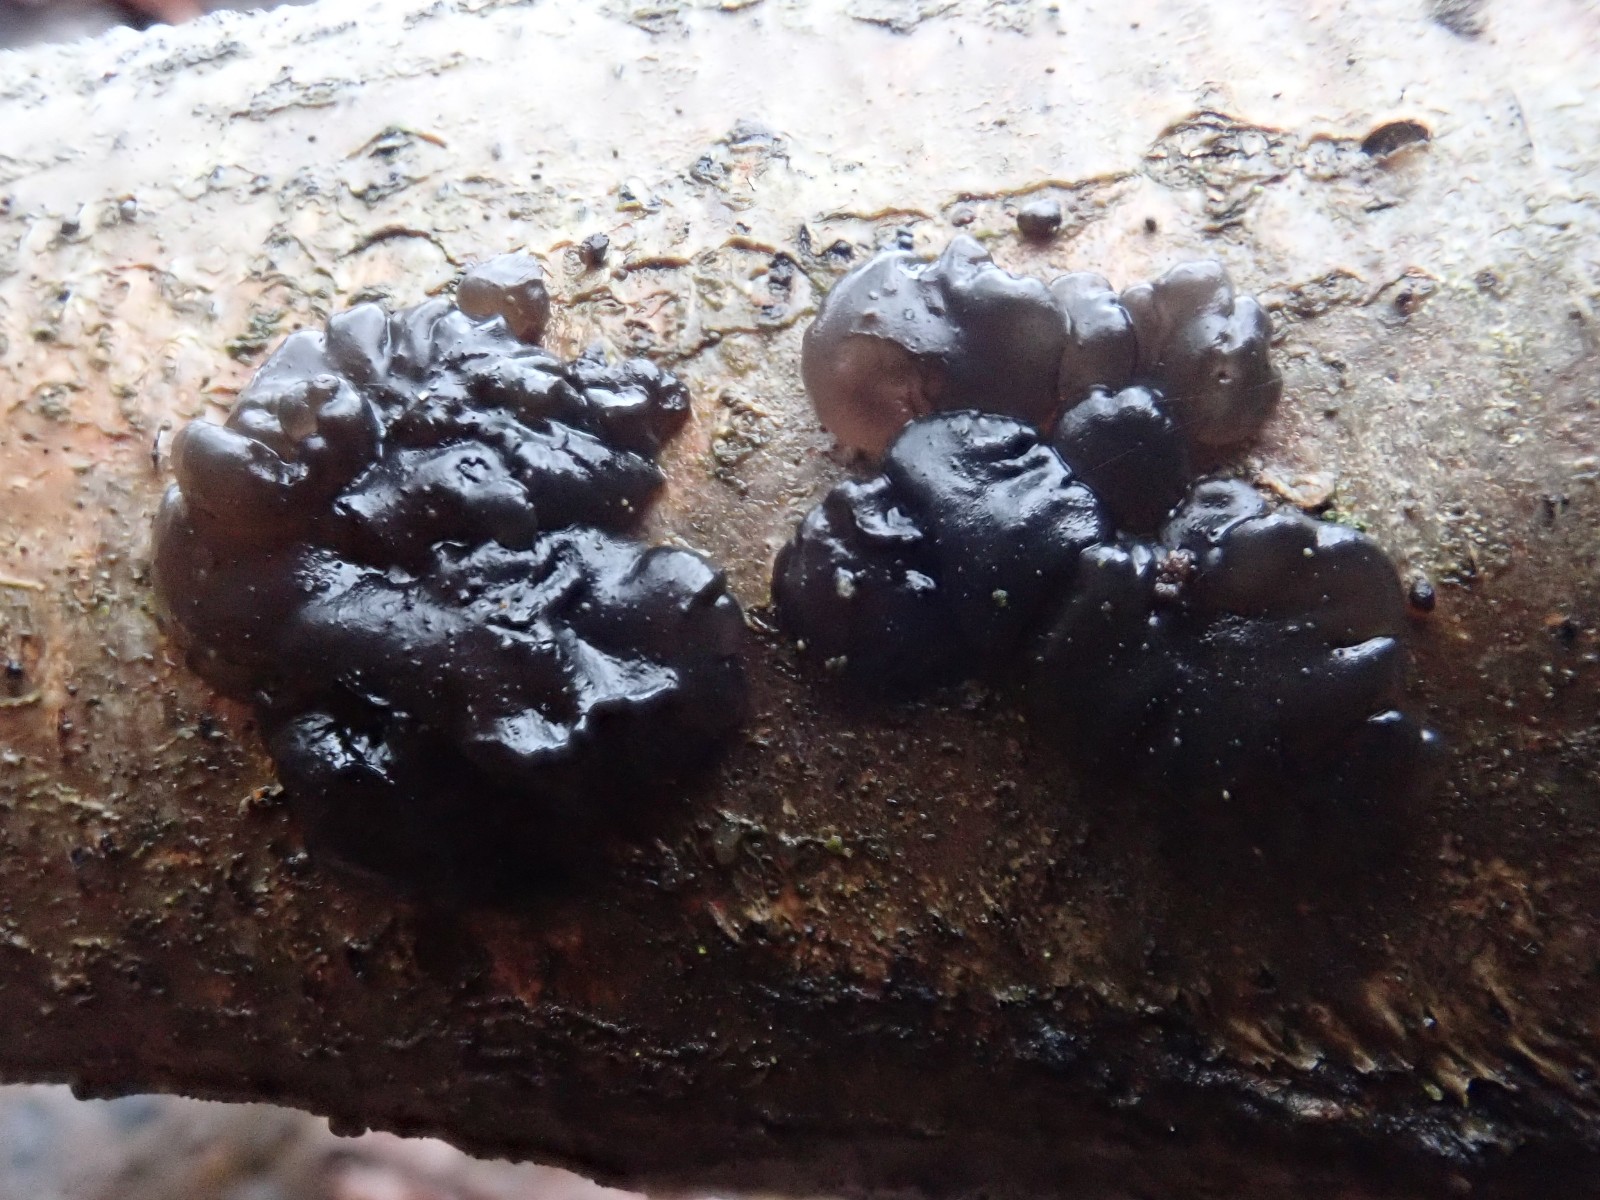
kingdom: Fungi
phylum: Basidiomycota
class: Agaricomycetes
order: Auriculariales
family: Auriculariaceae
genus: Exidia
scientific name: Exidia nigricans
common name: almindelig bævretop
